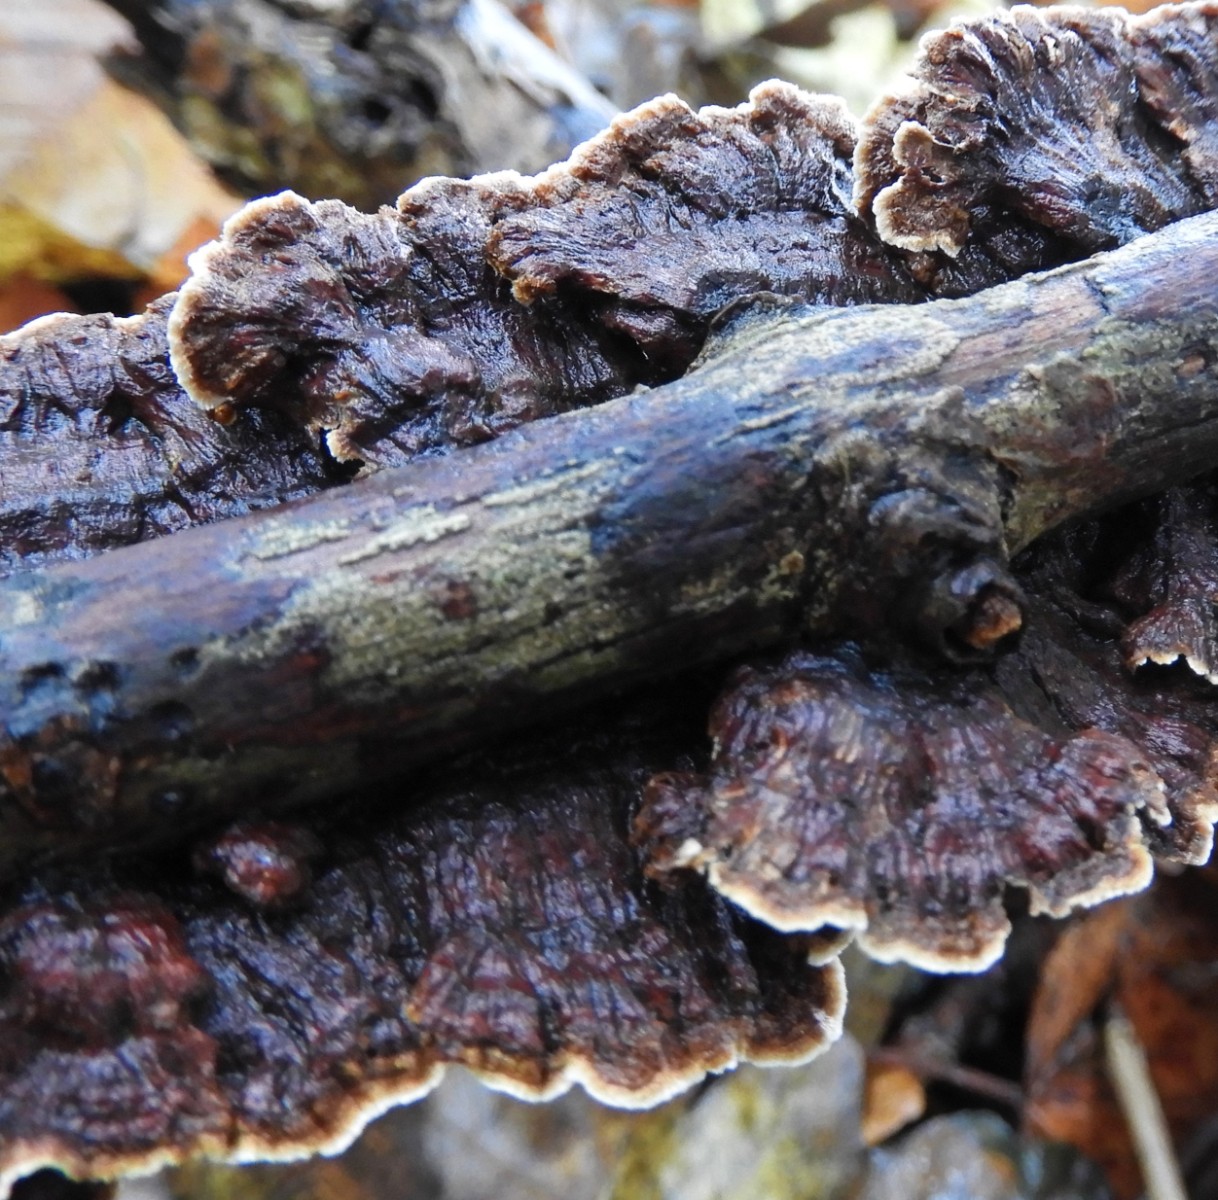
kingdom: Fungi
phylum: Basidiomycota
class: Agaricomycetes
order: Hymenochaetales
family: Hymenochaetaceae
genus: Hydnoporia
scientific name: Hydnoporia tabacina
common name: tobaksbrun ruslædersvamp
